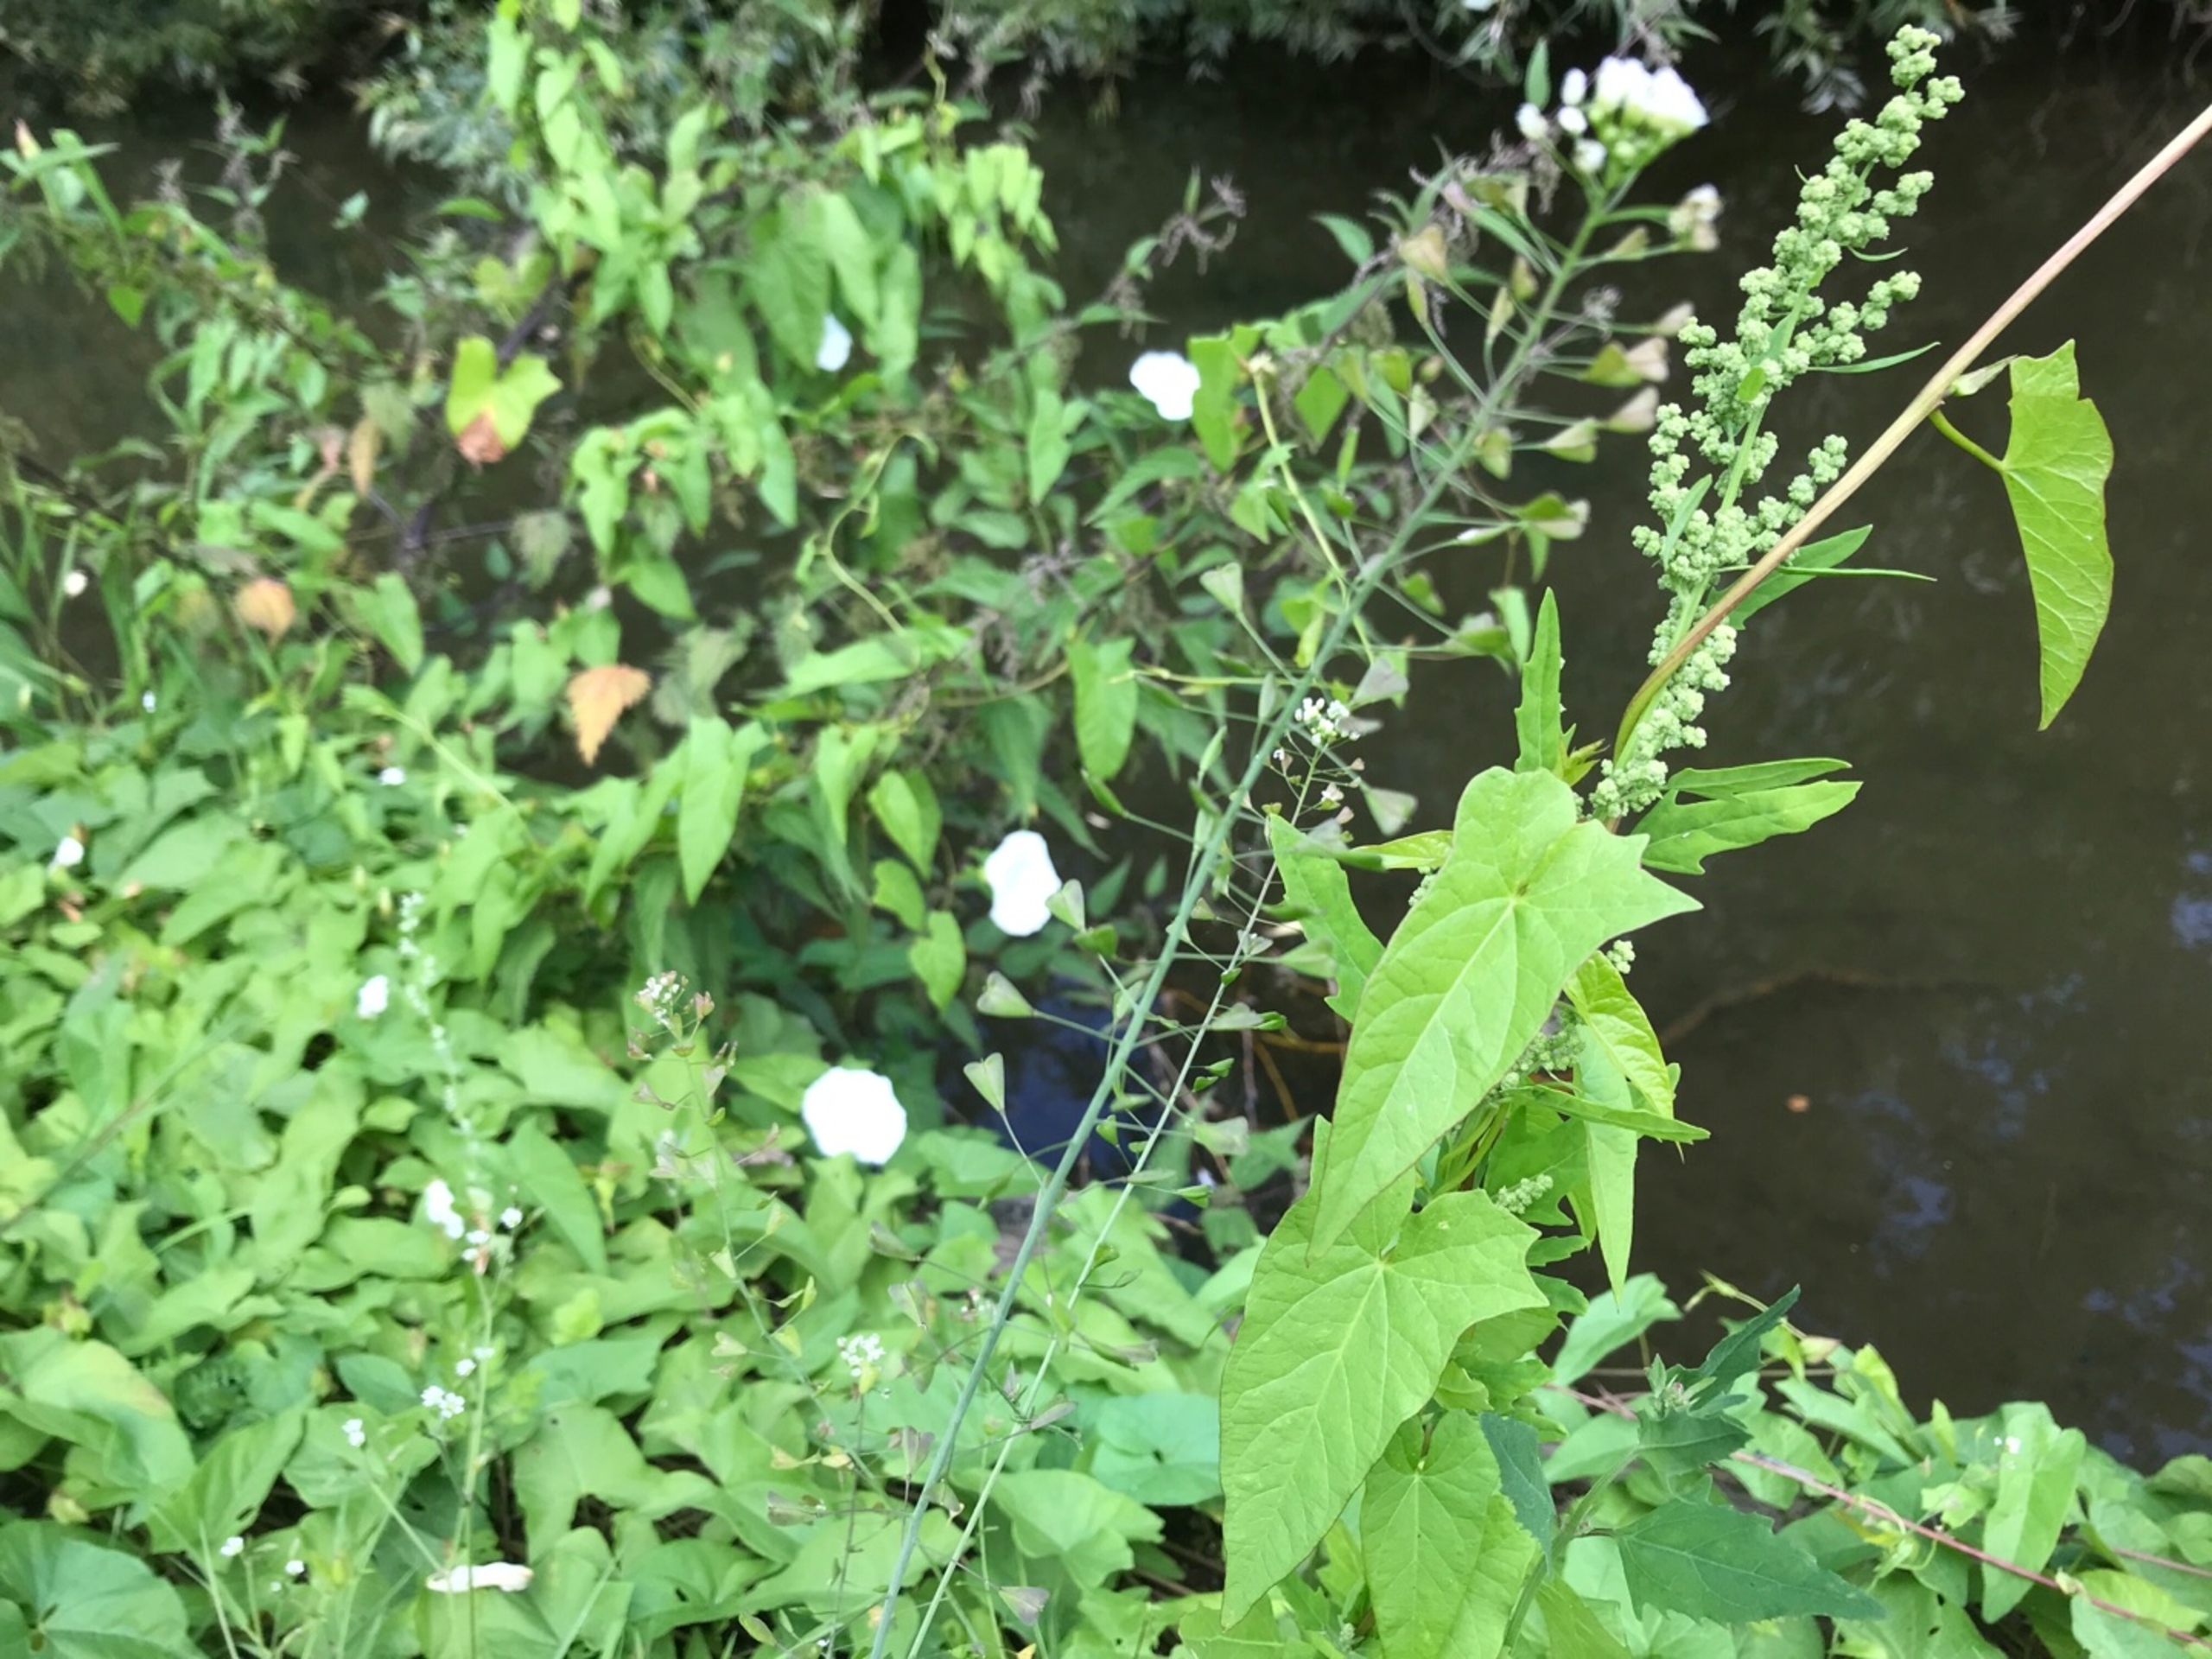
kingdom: Plantae
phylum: Tracheophyta
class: Magnoliopsida
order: Brassicales
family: Brassicaceae
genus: Capsella
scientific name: Capsella bursa-pastoris
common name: Hyrdetaske
